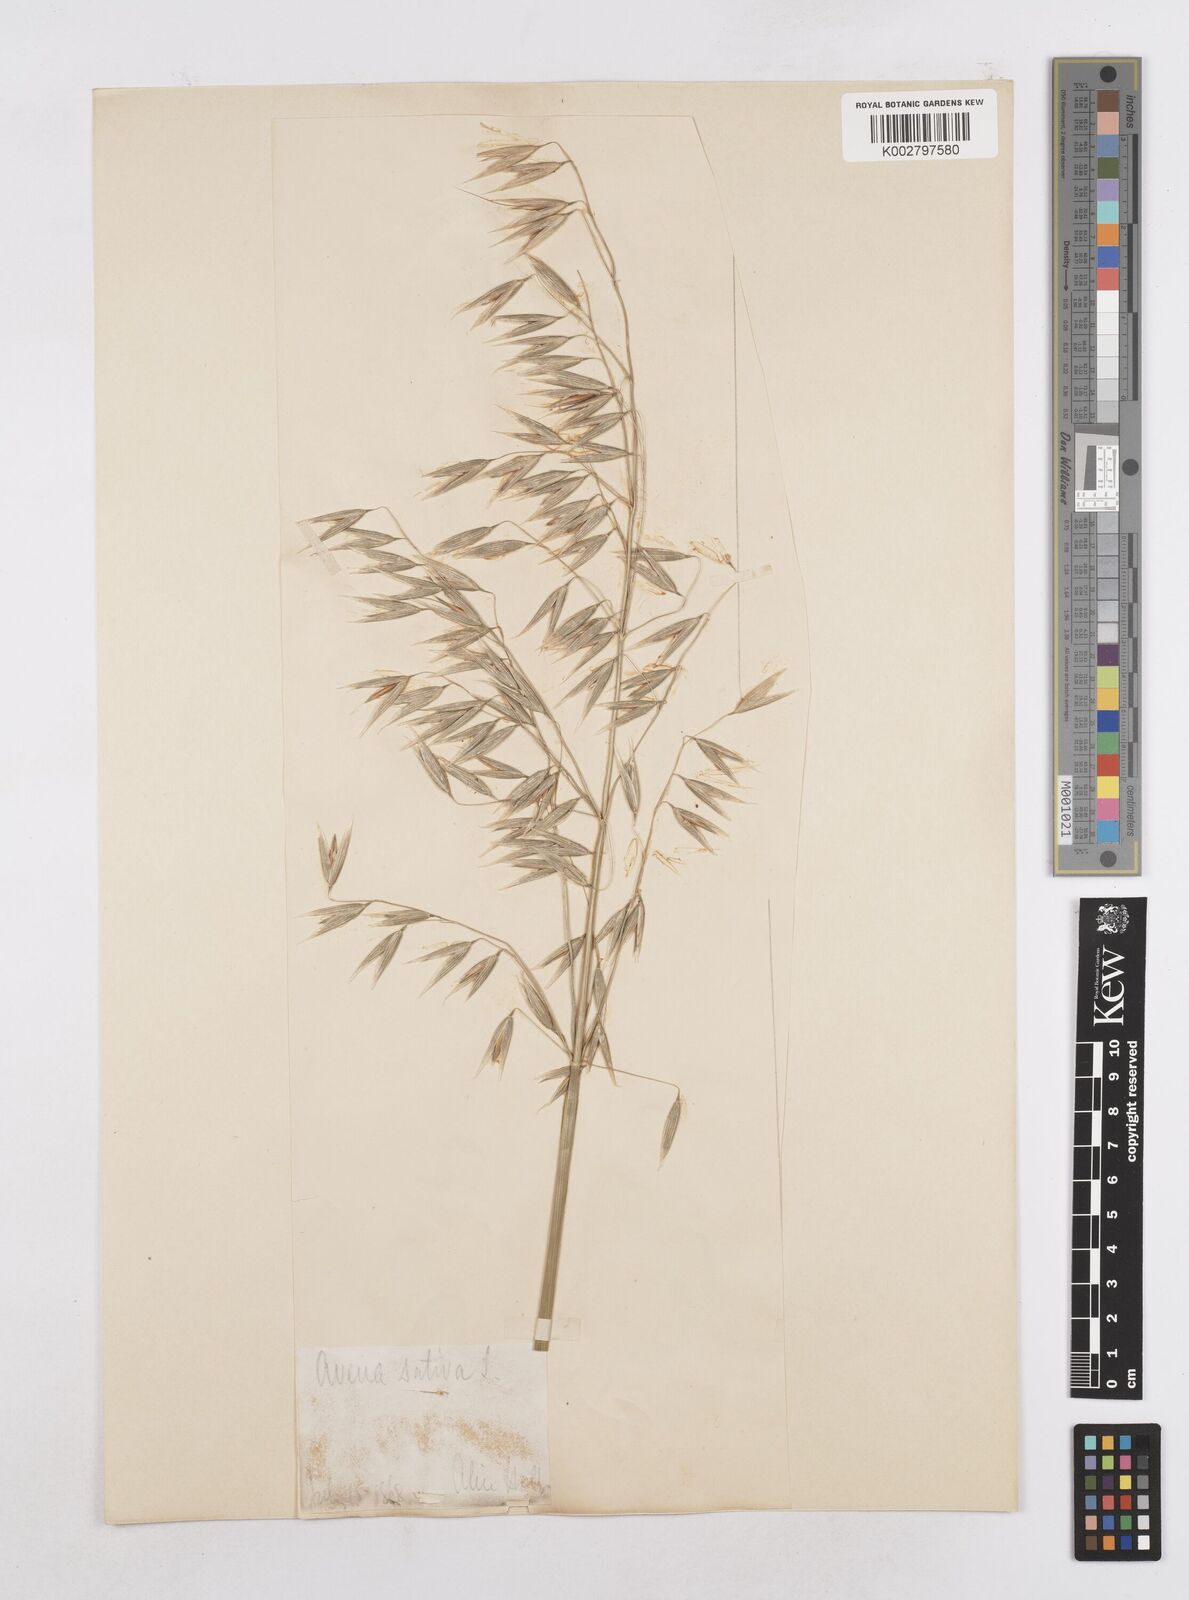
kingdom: Plantae
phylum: Tracheophyta
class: Liliopsida
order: Poales
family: Poaceae
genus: Avena
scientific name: Avena sativa
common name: Oat
